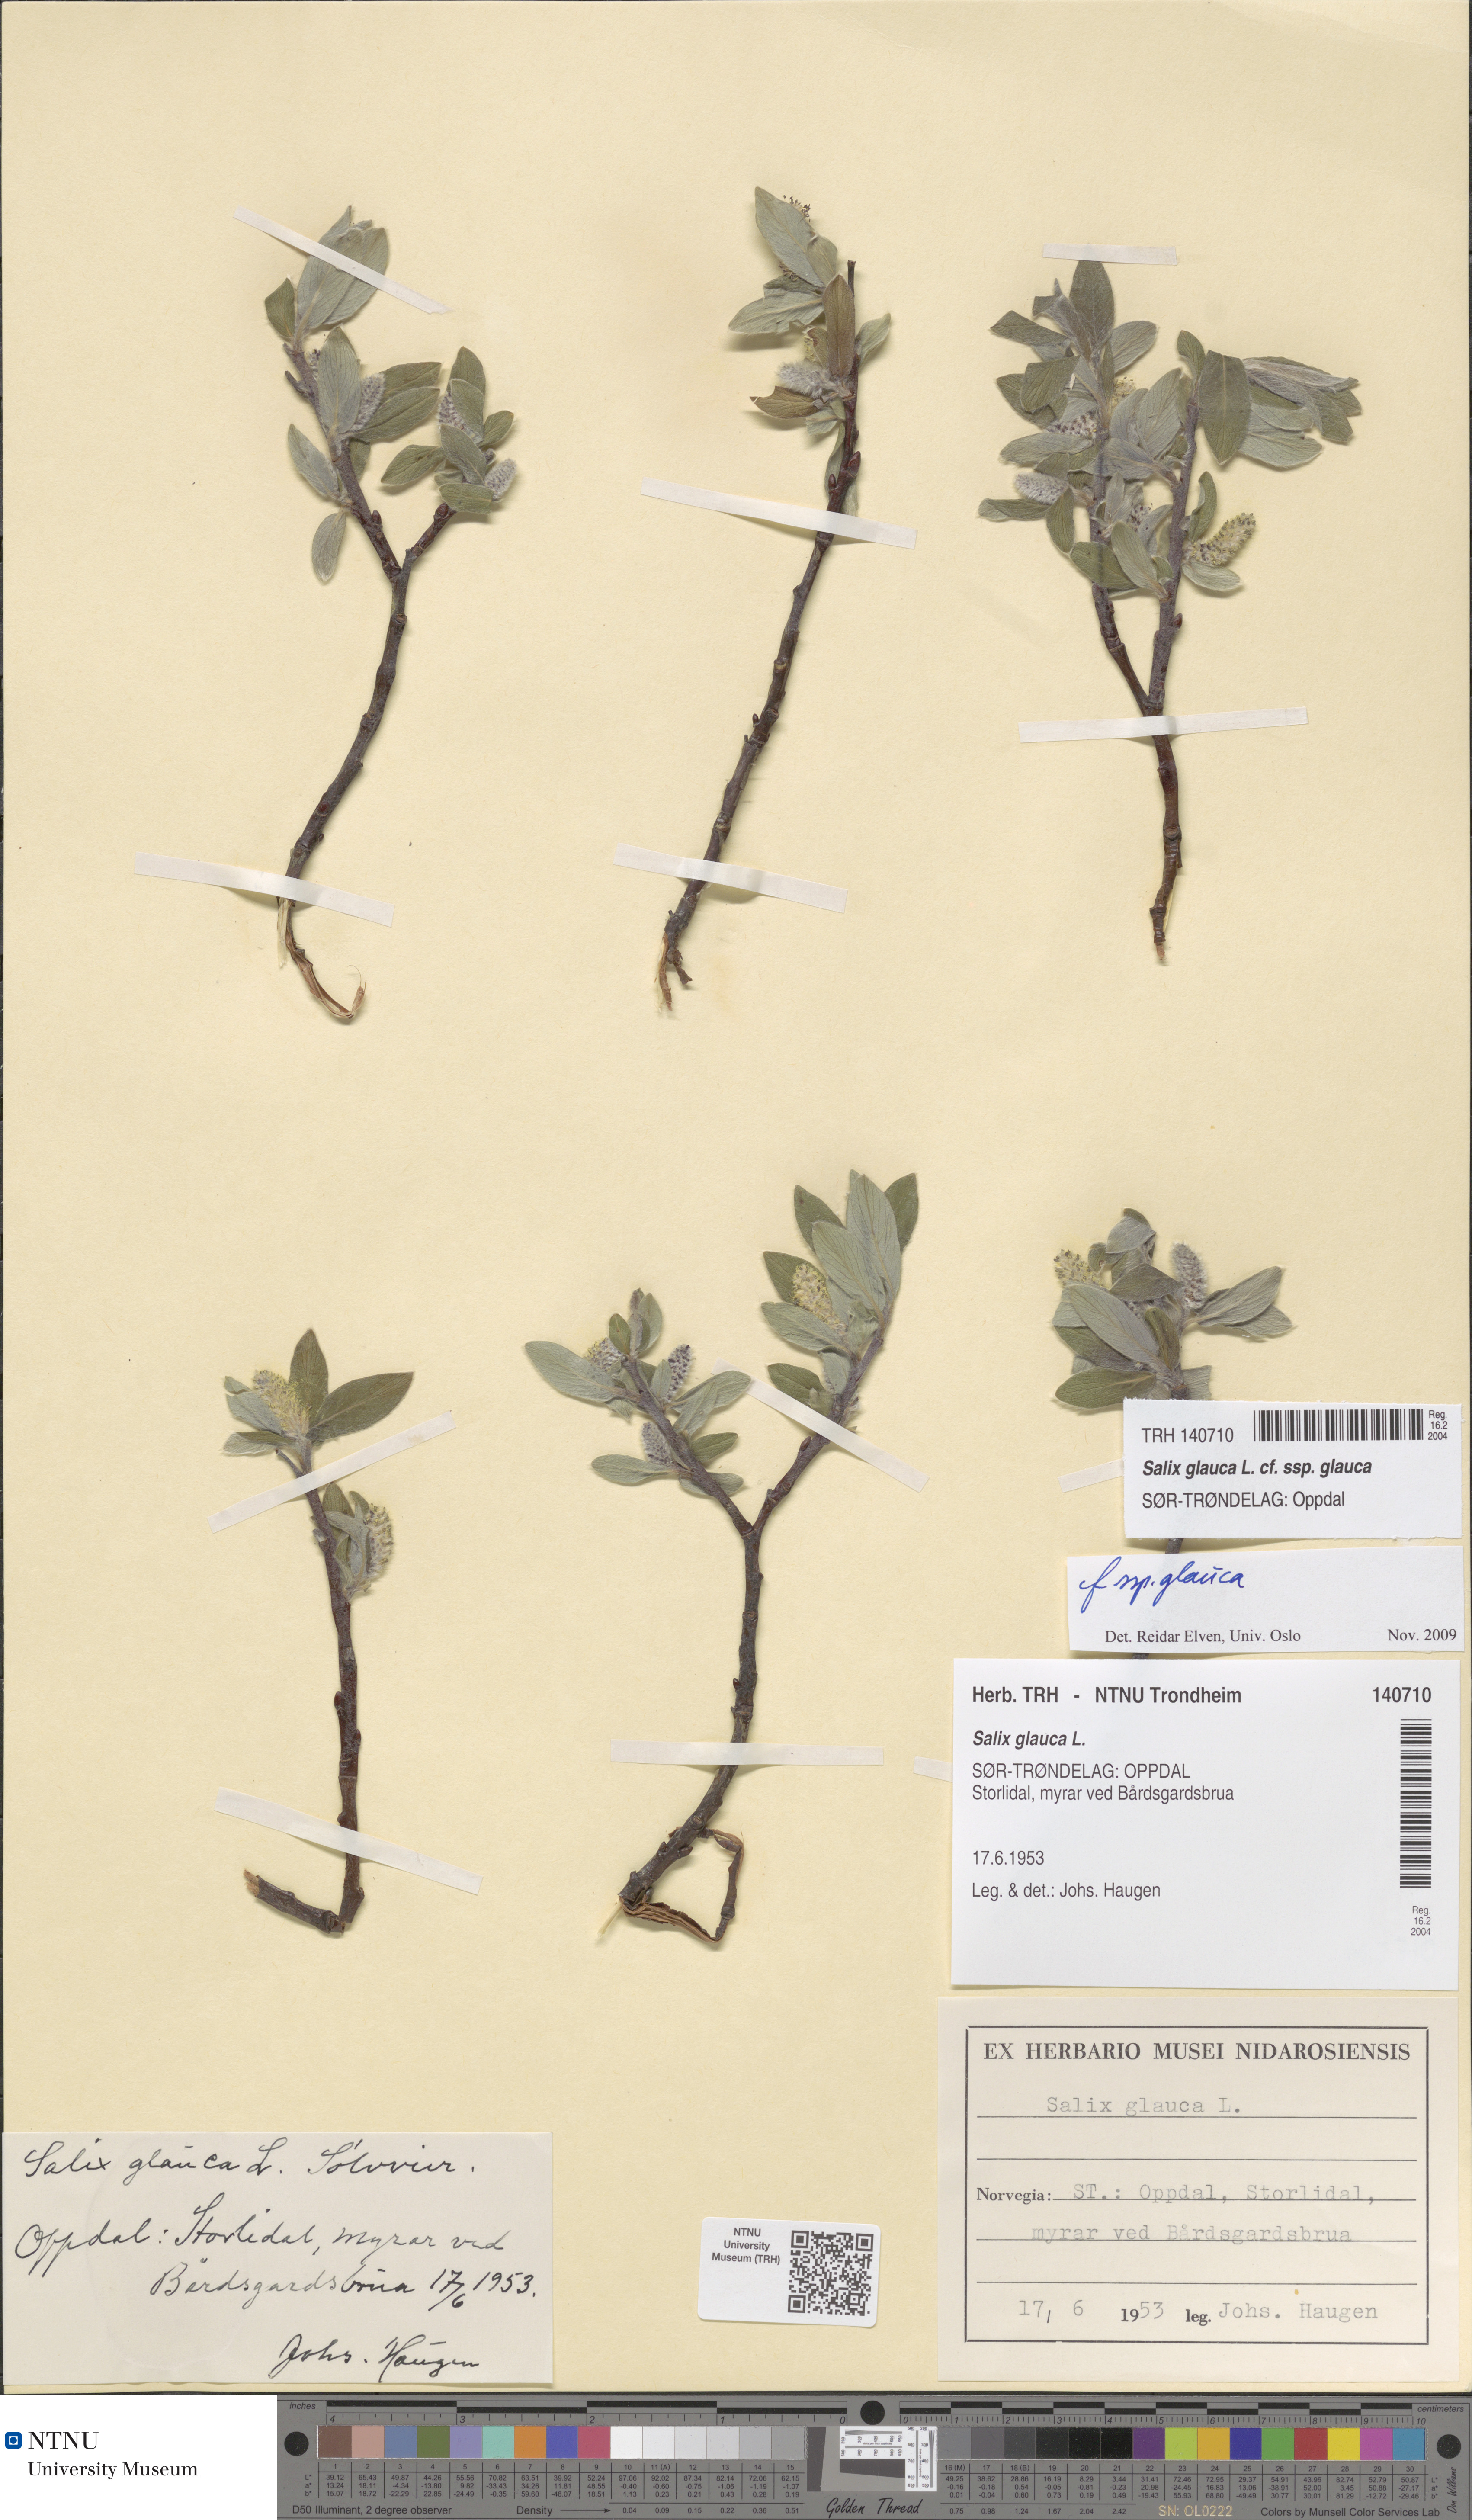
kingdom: Plantae
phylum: Tracheophyta
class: Magnoliopsida
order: Malpighiales
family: Salicaceae
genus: Salix
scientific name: Salix glauca
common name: Glaucous willow
